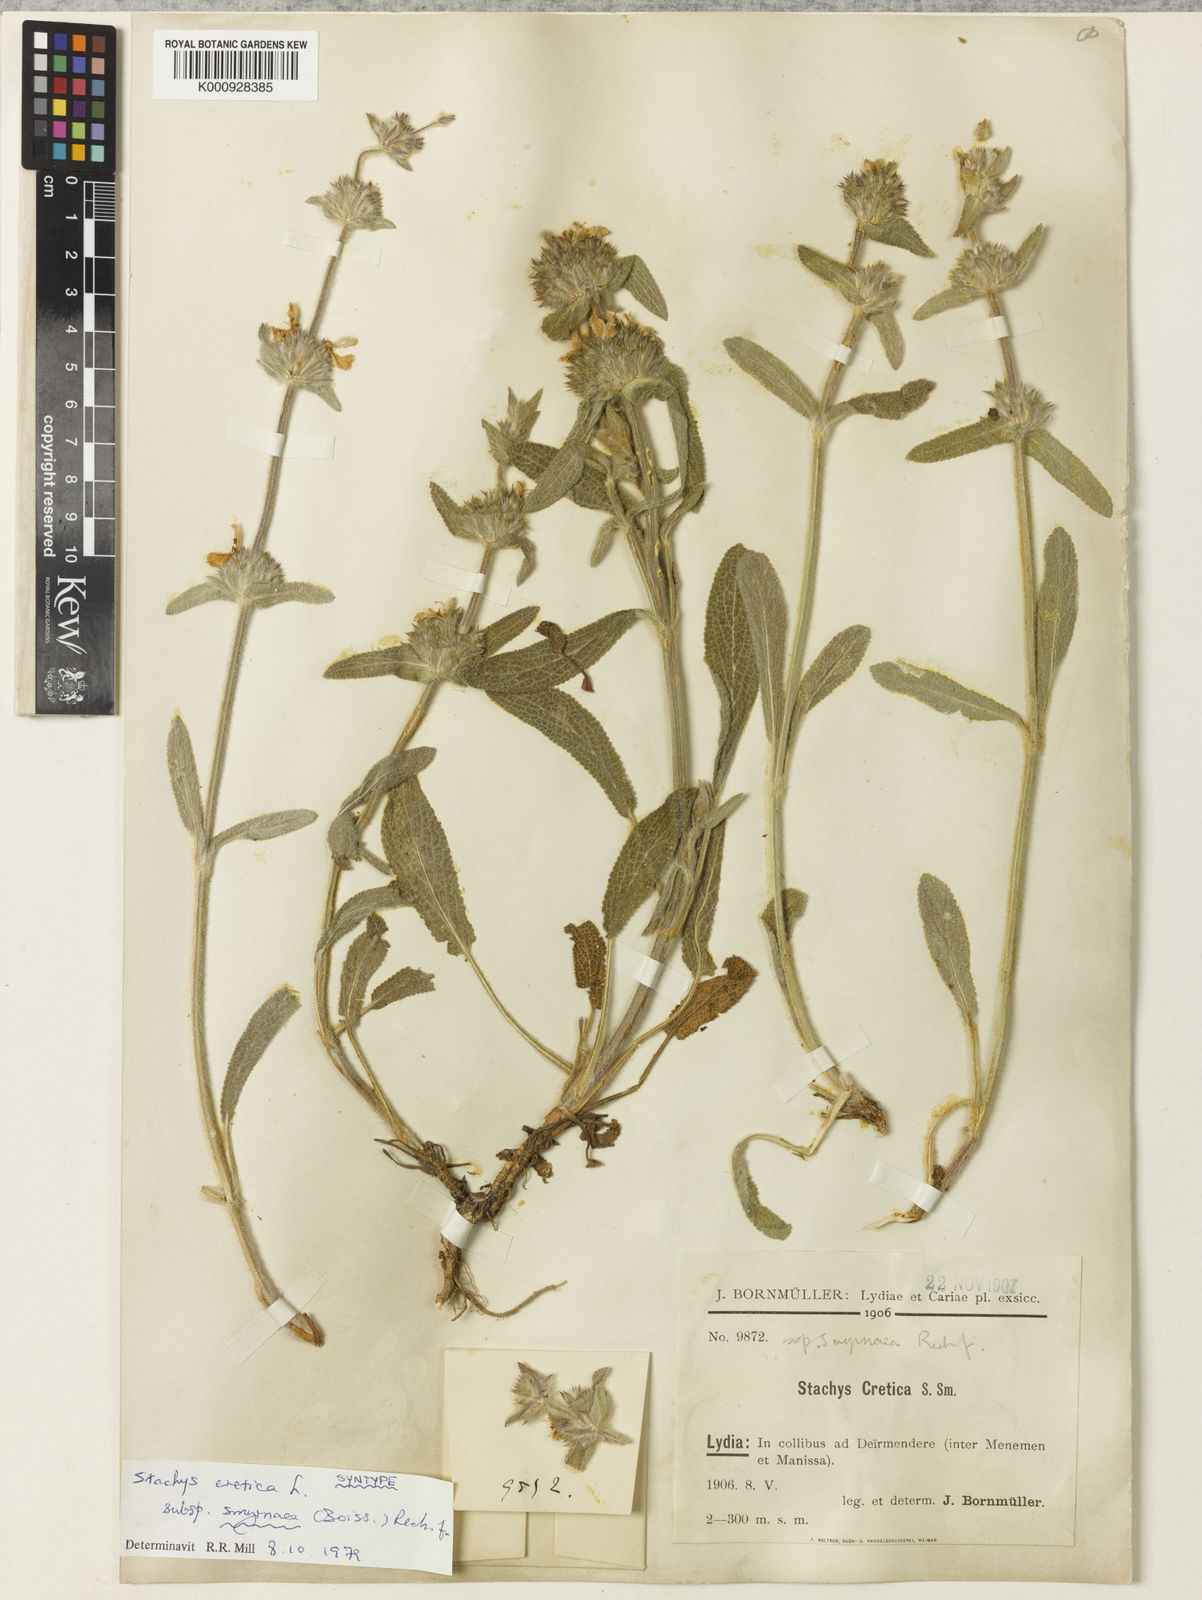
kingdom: Plantae
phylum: Tracheophyta
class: Magnoliopsida
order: Lamiales
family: Lamiaceae
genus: Stachys
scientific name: Stachys cretica
